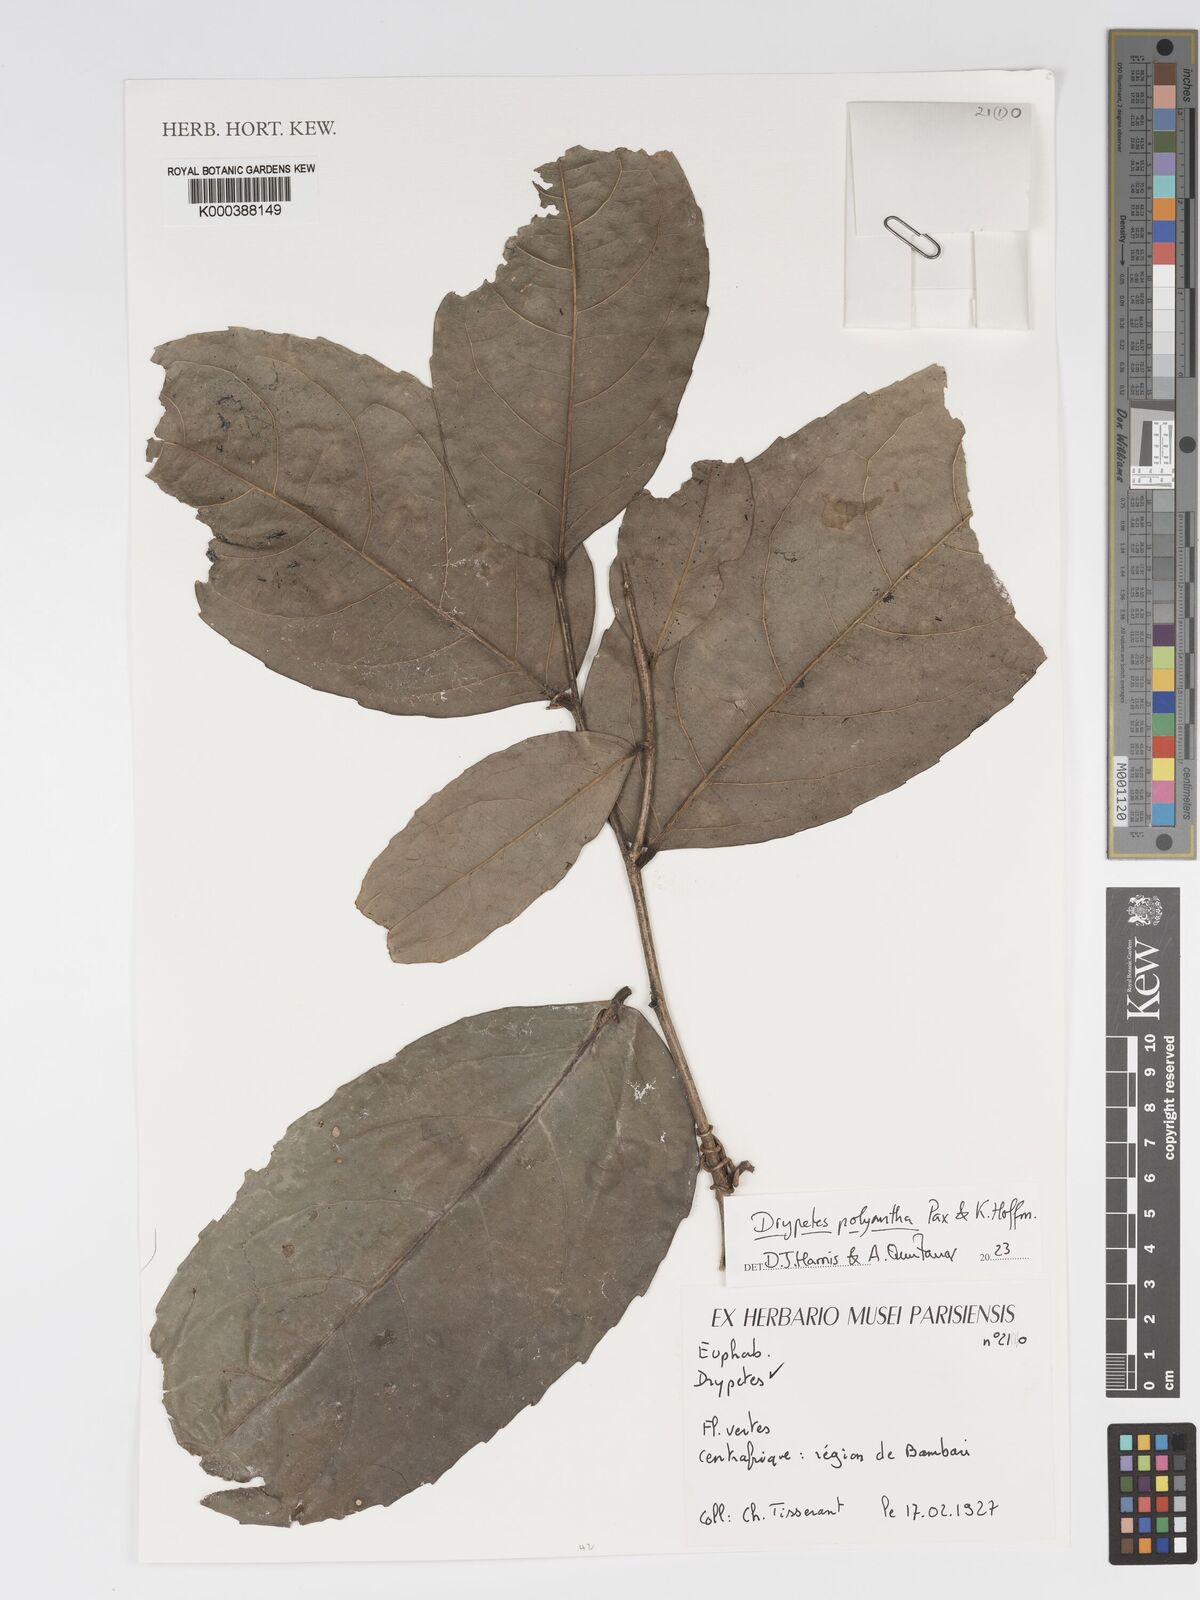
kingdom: Plantae
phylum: Tracheophyta
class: Magnoliopsida
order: Malpighiales
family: Putranjivaceae
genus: Drypetes
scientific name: Drypetes polyantha
